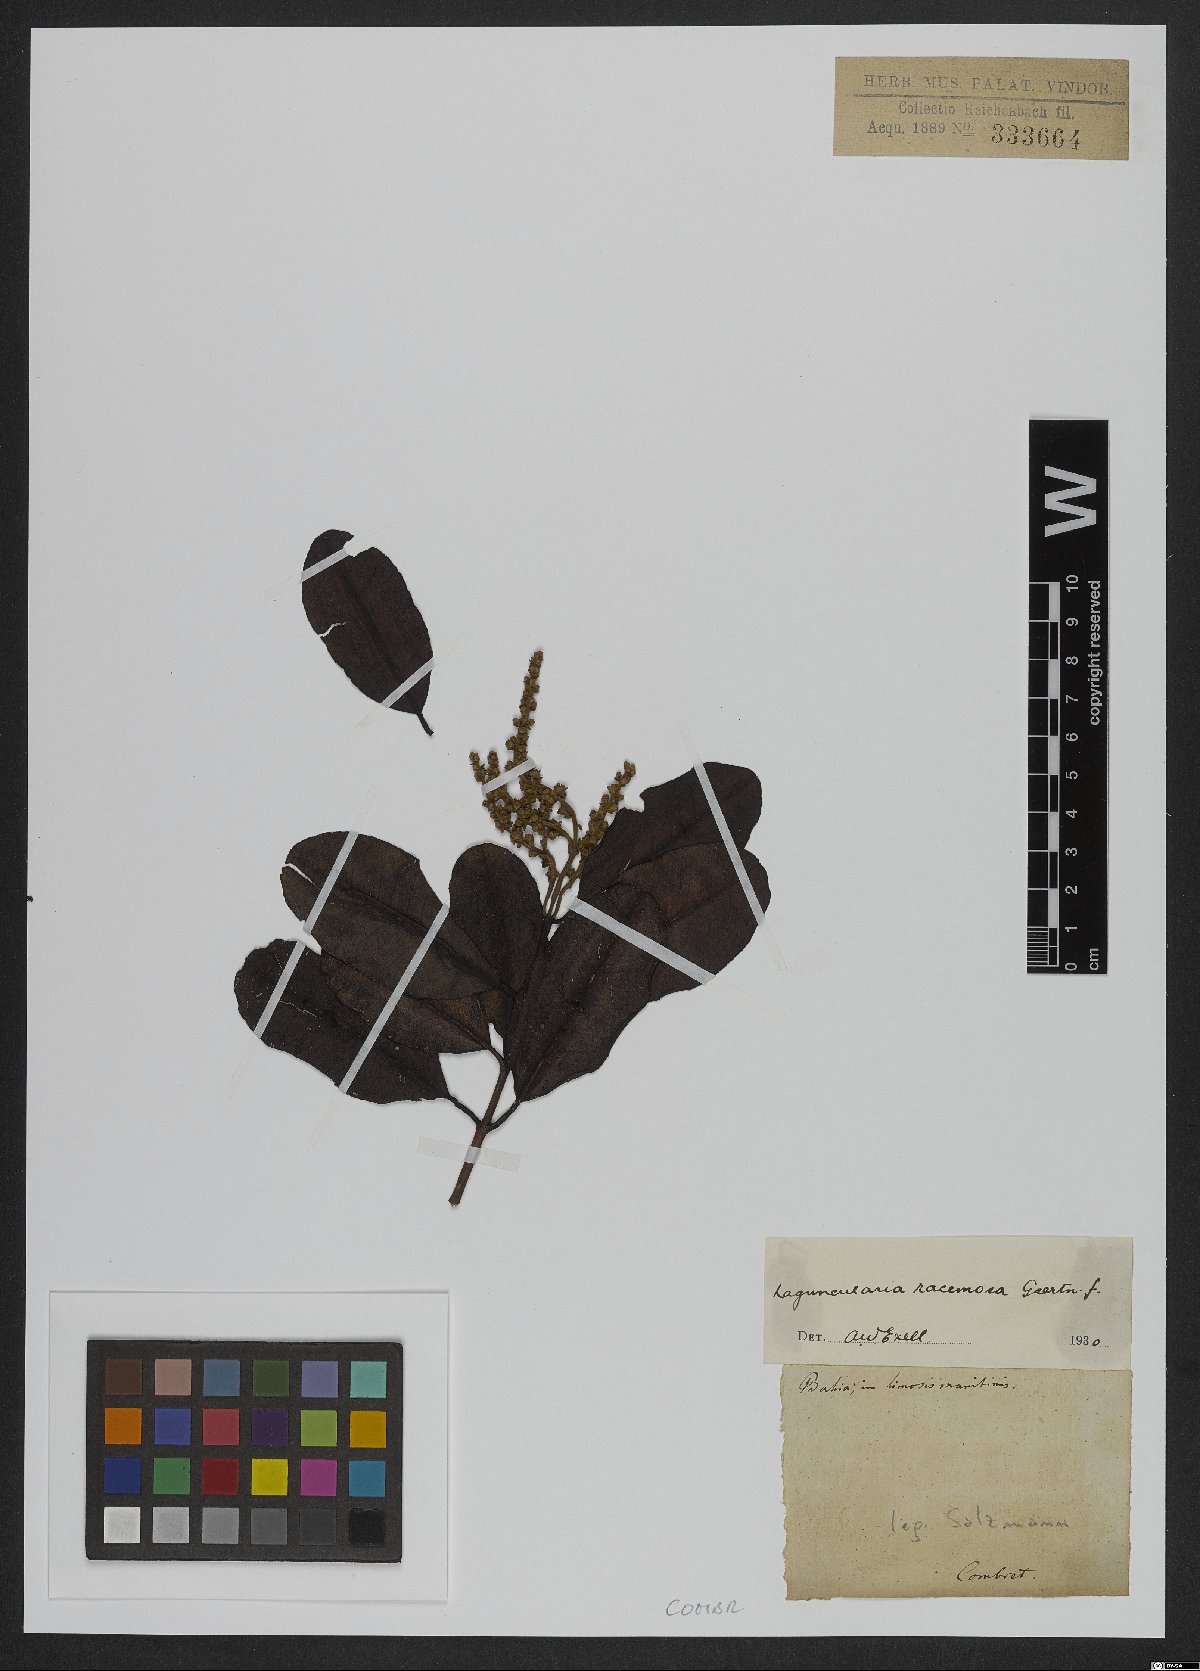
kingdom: Plantae
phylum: Tracheophyta
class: Magnoliopsida
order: Myrtales
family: Combretaceae
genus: Laguncularia
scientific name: Laguncularia racemosa
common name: White mangrove
